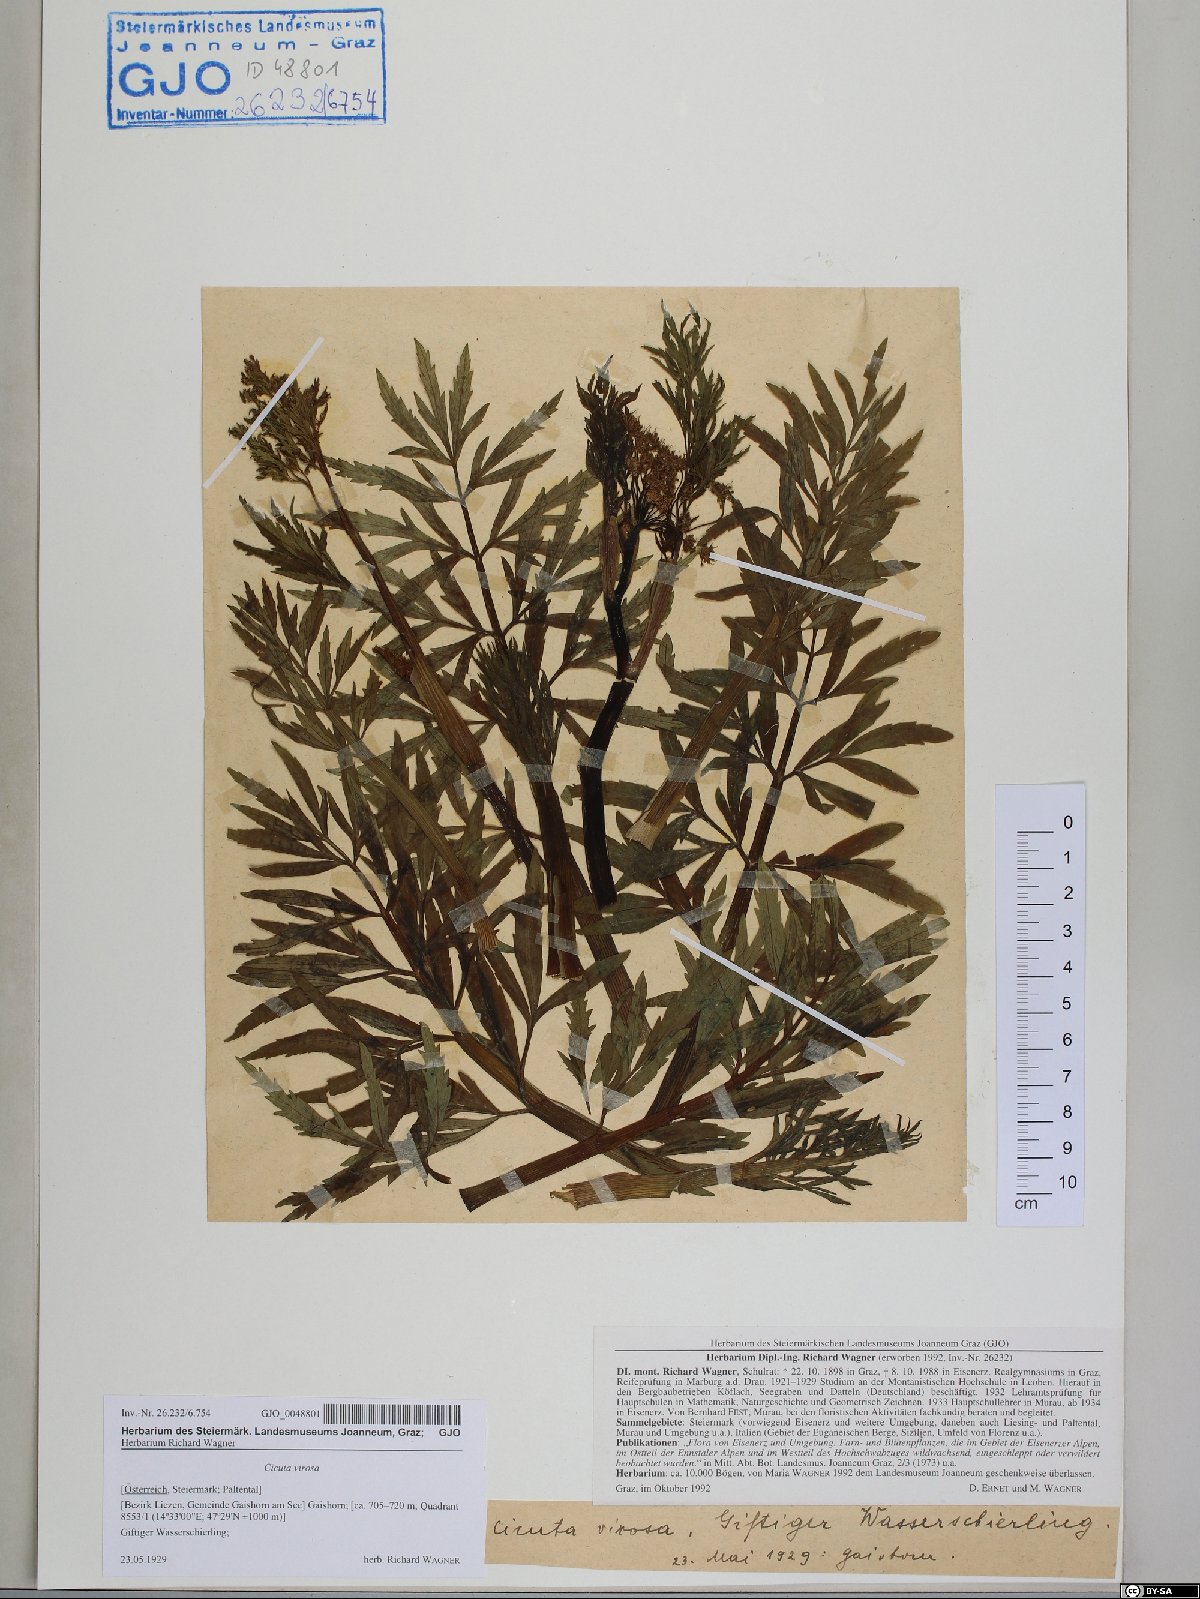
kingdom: Plantae
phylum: Tracheophyta
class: Magnoliopsida
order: Apiales
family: Apiaceae
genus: Cicuta
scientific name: Cicuta virosa
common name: Cowbane
